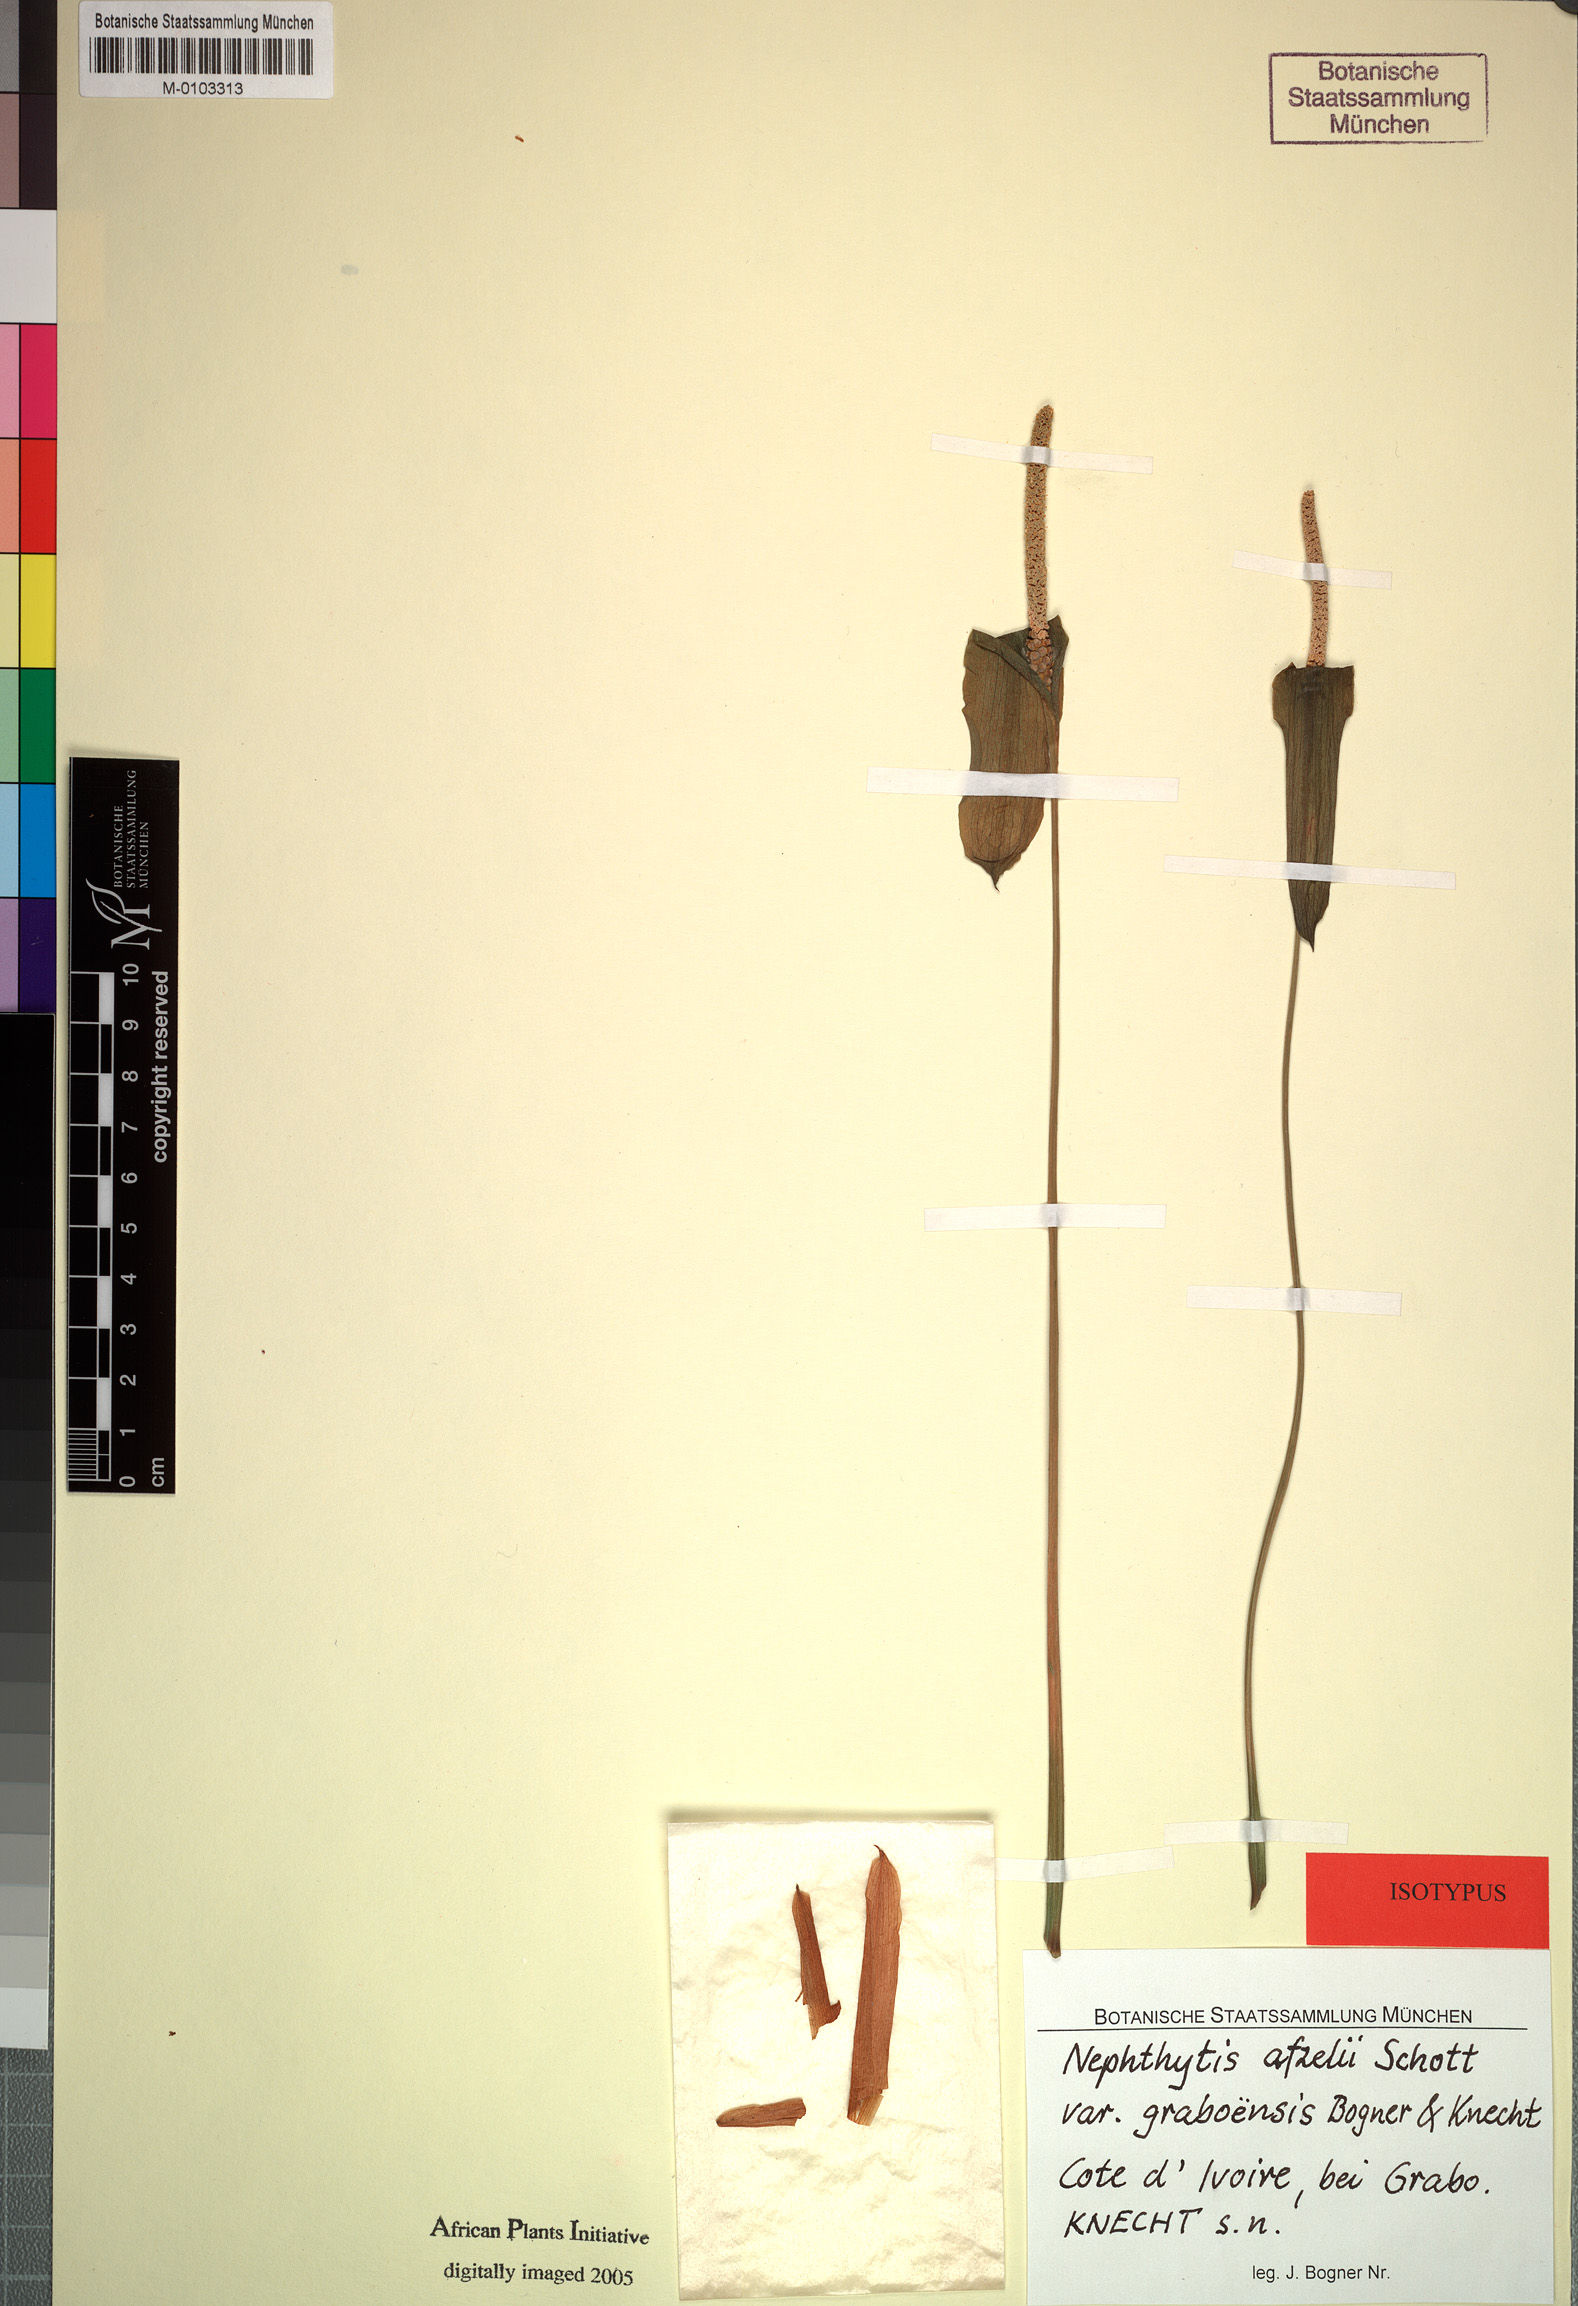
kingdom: Plantae
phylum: Tracheophyta
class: Liliopsida
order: Alismatales
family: Araceae
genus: Nephthytis
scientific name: Nephthytis afzelii
